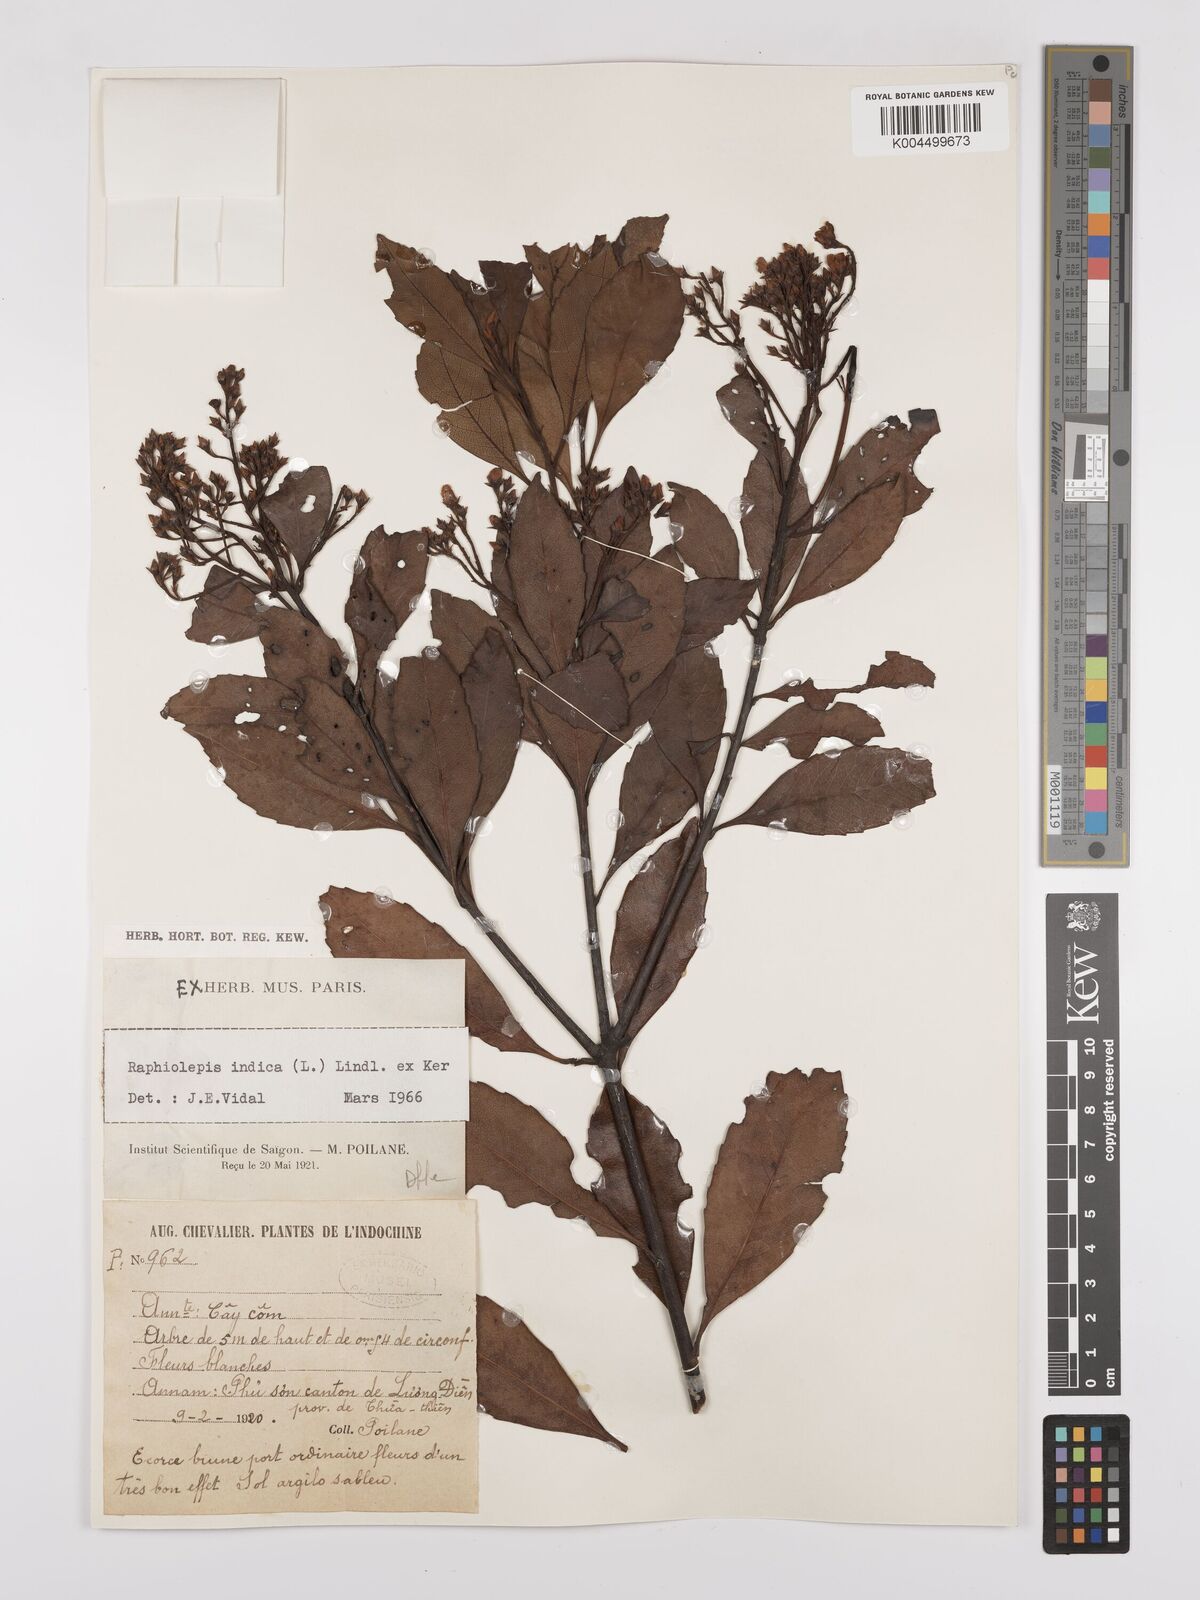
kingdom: Plantae
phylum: Tracheophyta
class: Magnoliopsida
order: Rosales
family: Rosaceae
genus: Rhaphiolepis
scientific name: Rhaphiolepis indica
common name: India-hawthorn
